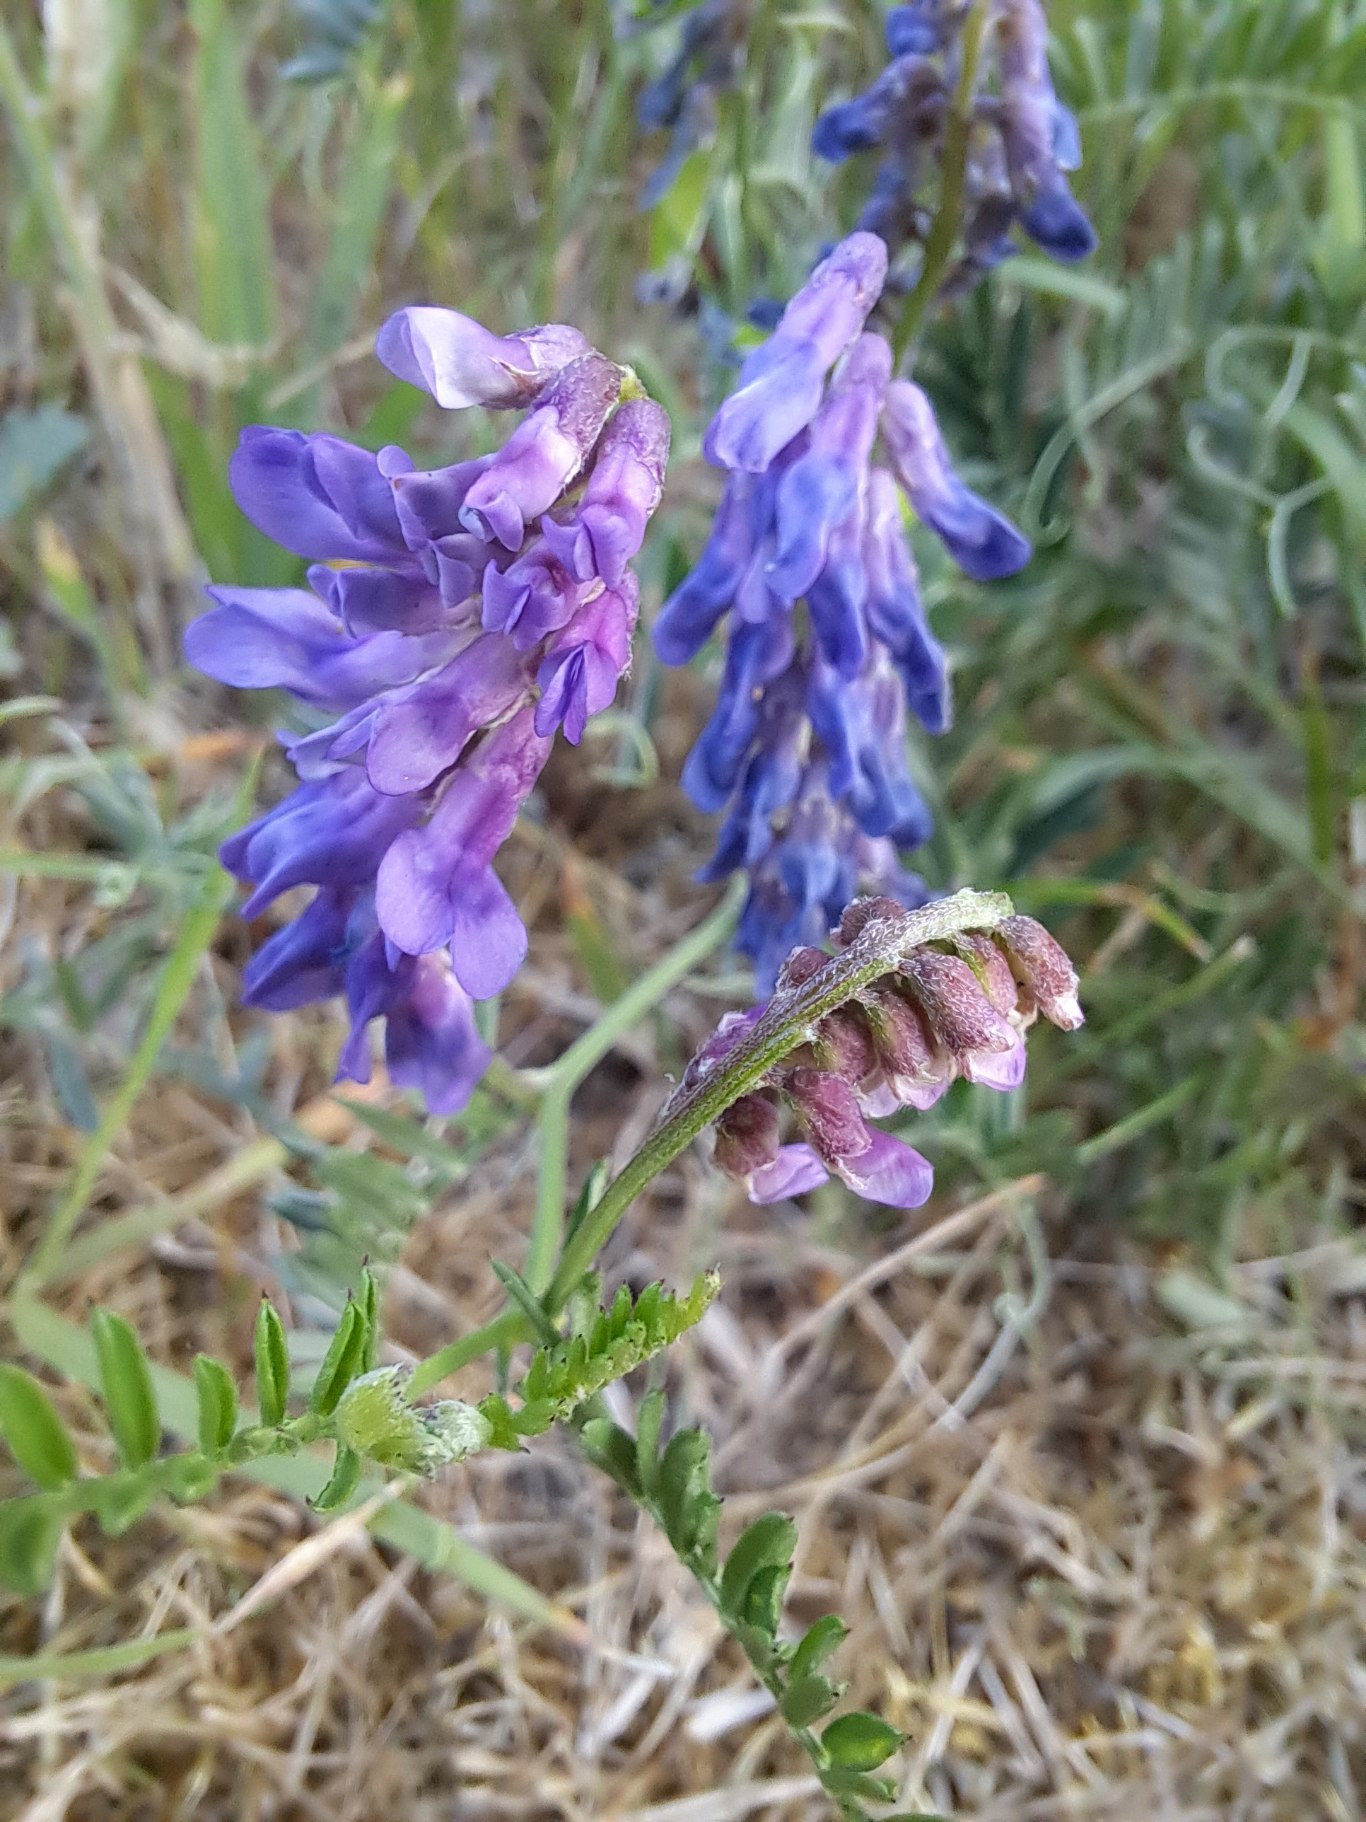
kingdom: Plantae
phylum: Tracheophyta
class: Magnoliopsida
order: Fabales
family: Fabaceae
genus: Vicia
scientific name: Vicia cracca
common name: Muse-vikke
